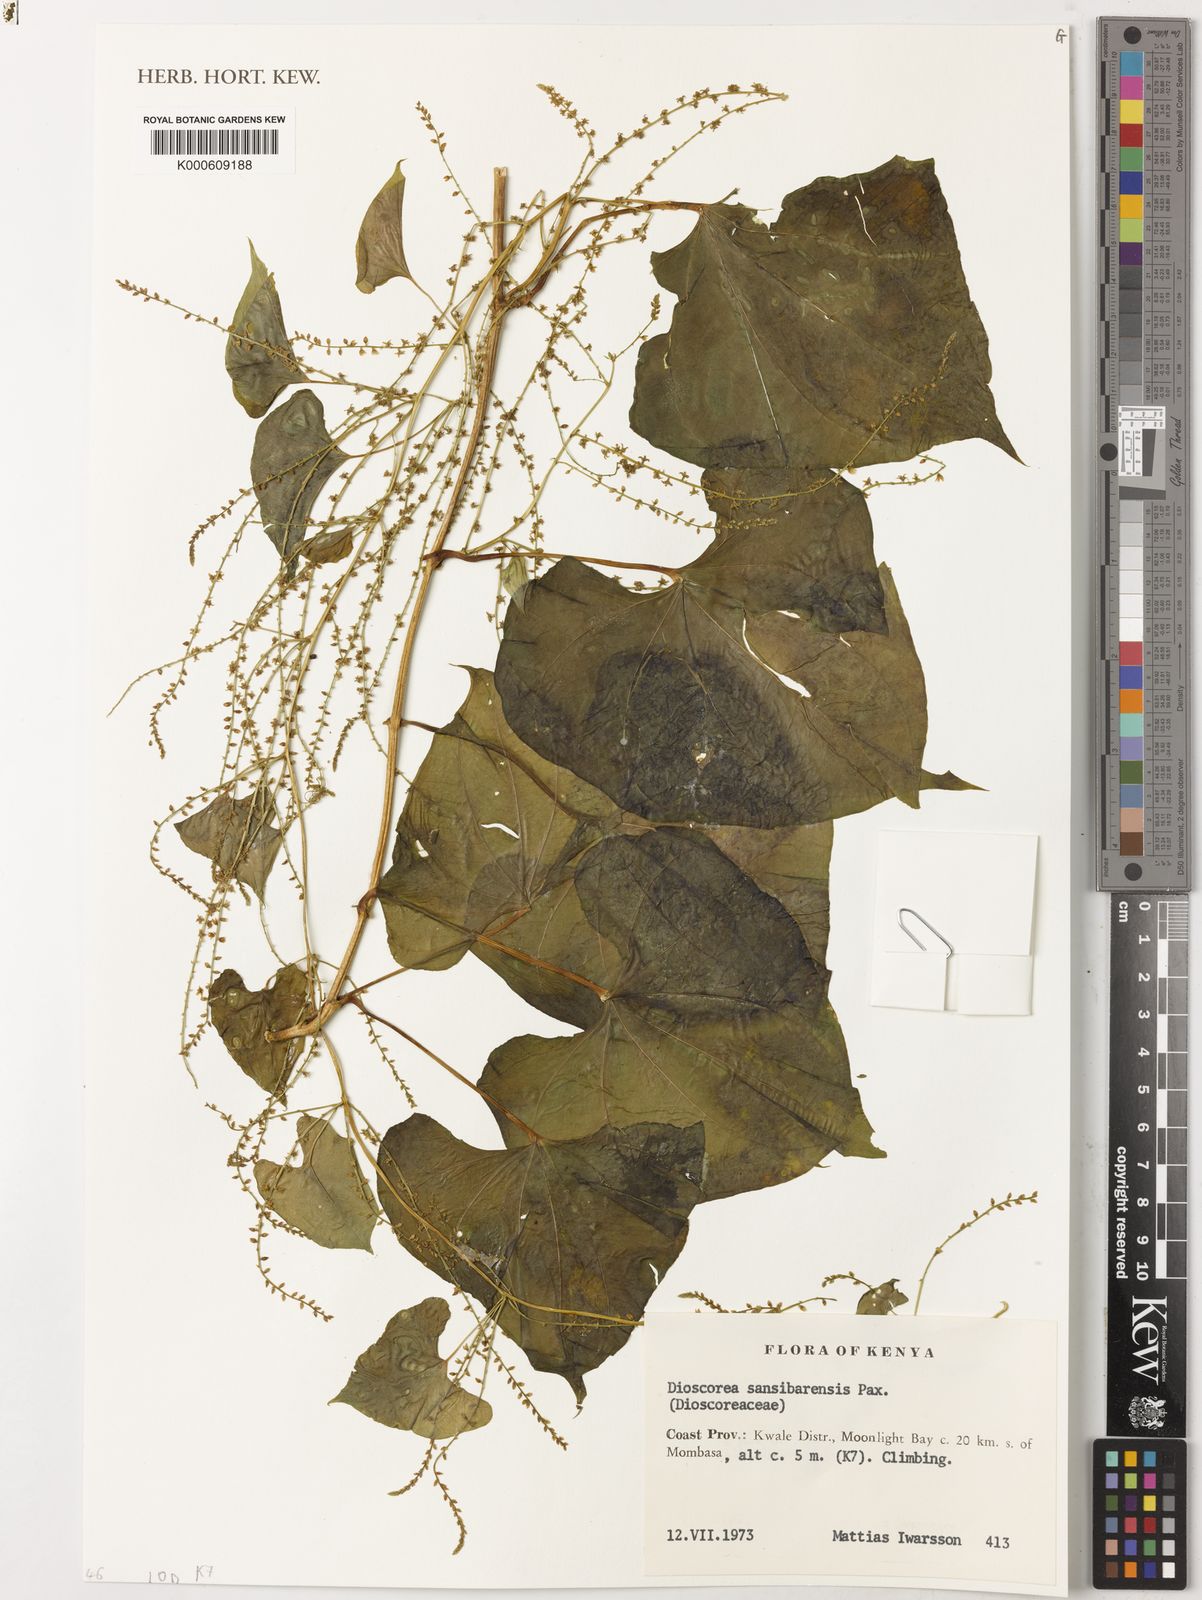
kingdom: Plantae
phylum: Tracheophyta
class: Liliopsida
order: Dioscoreales
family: Dioscoreaceae
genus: Dioscorea
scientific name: Dioscorea sansibarensis
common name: Zanzibar yam
